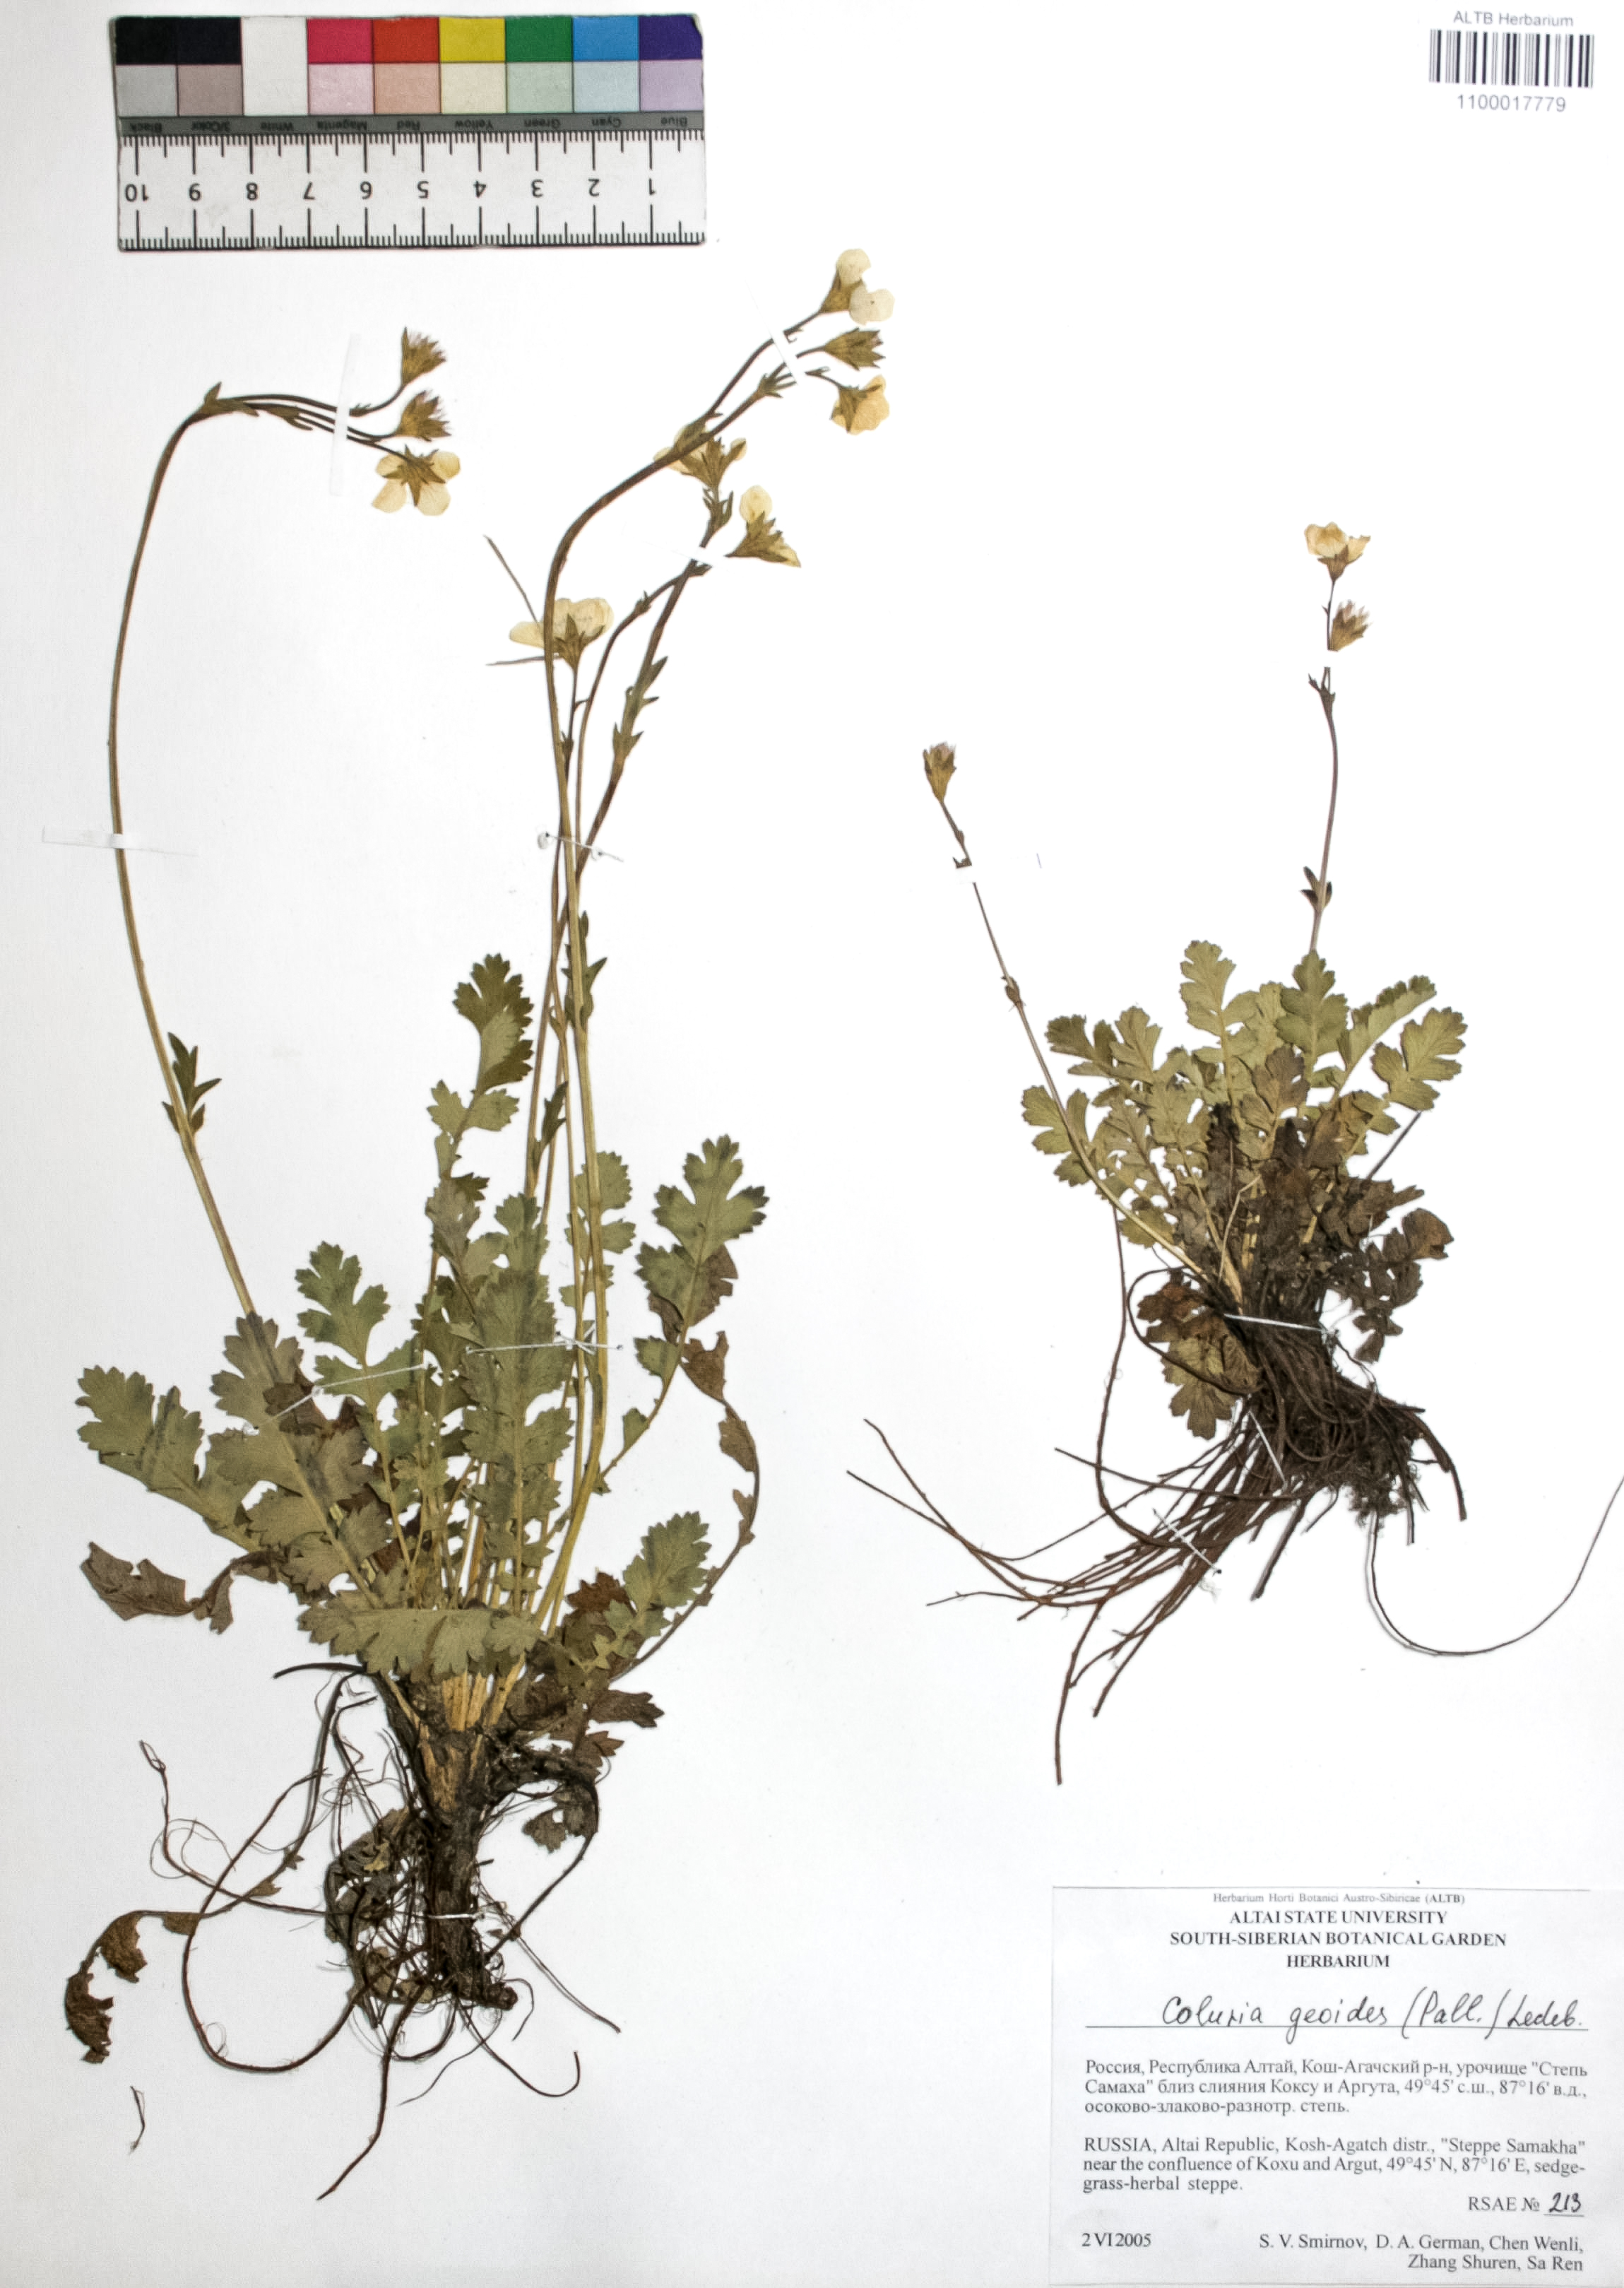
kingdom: Plantae
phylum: Tracheophyta
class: Magnoliopsida
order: Rosales
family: Rosaceae
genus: Geum
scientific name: Geum geoides
